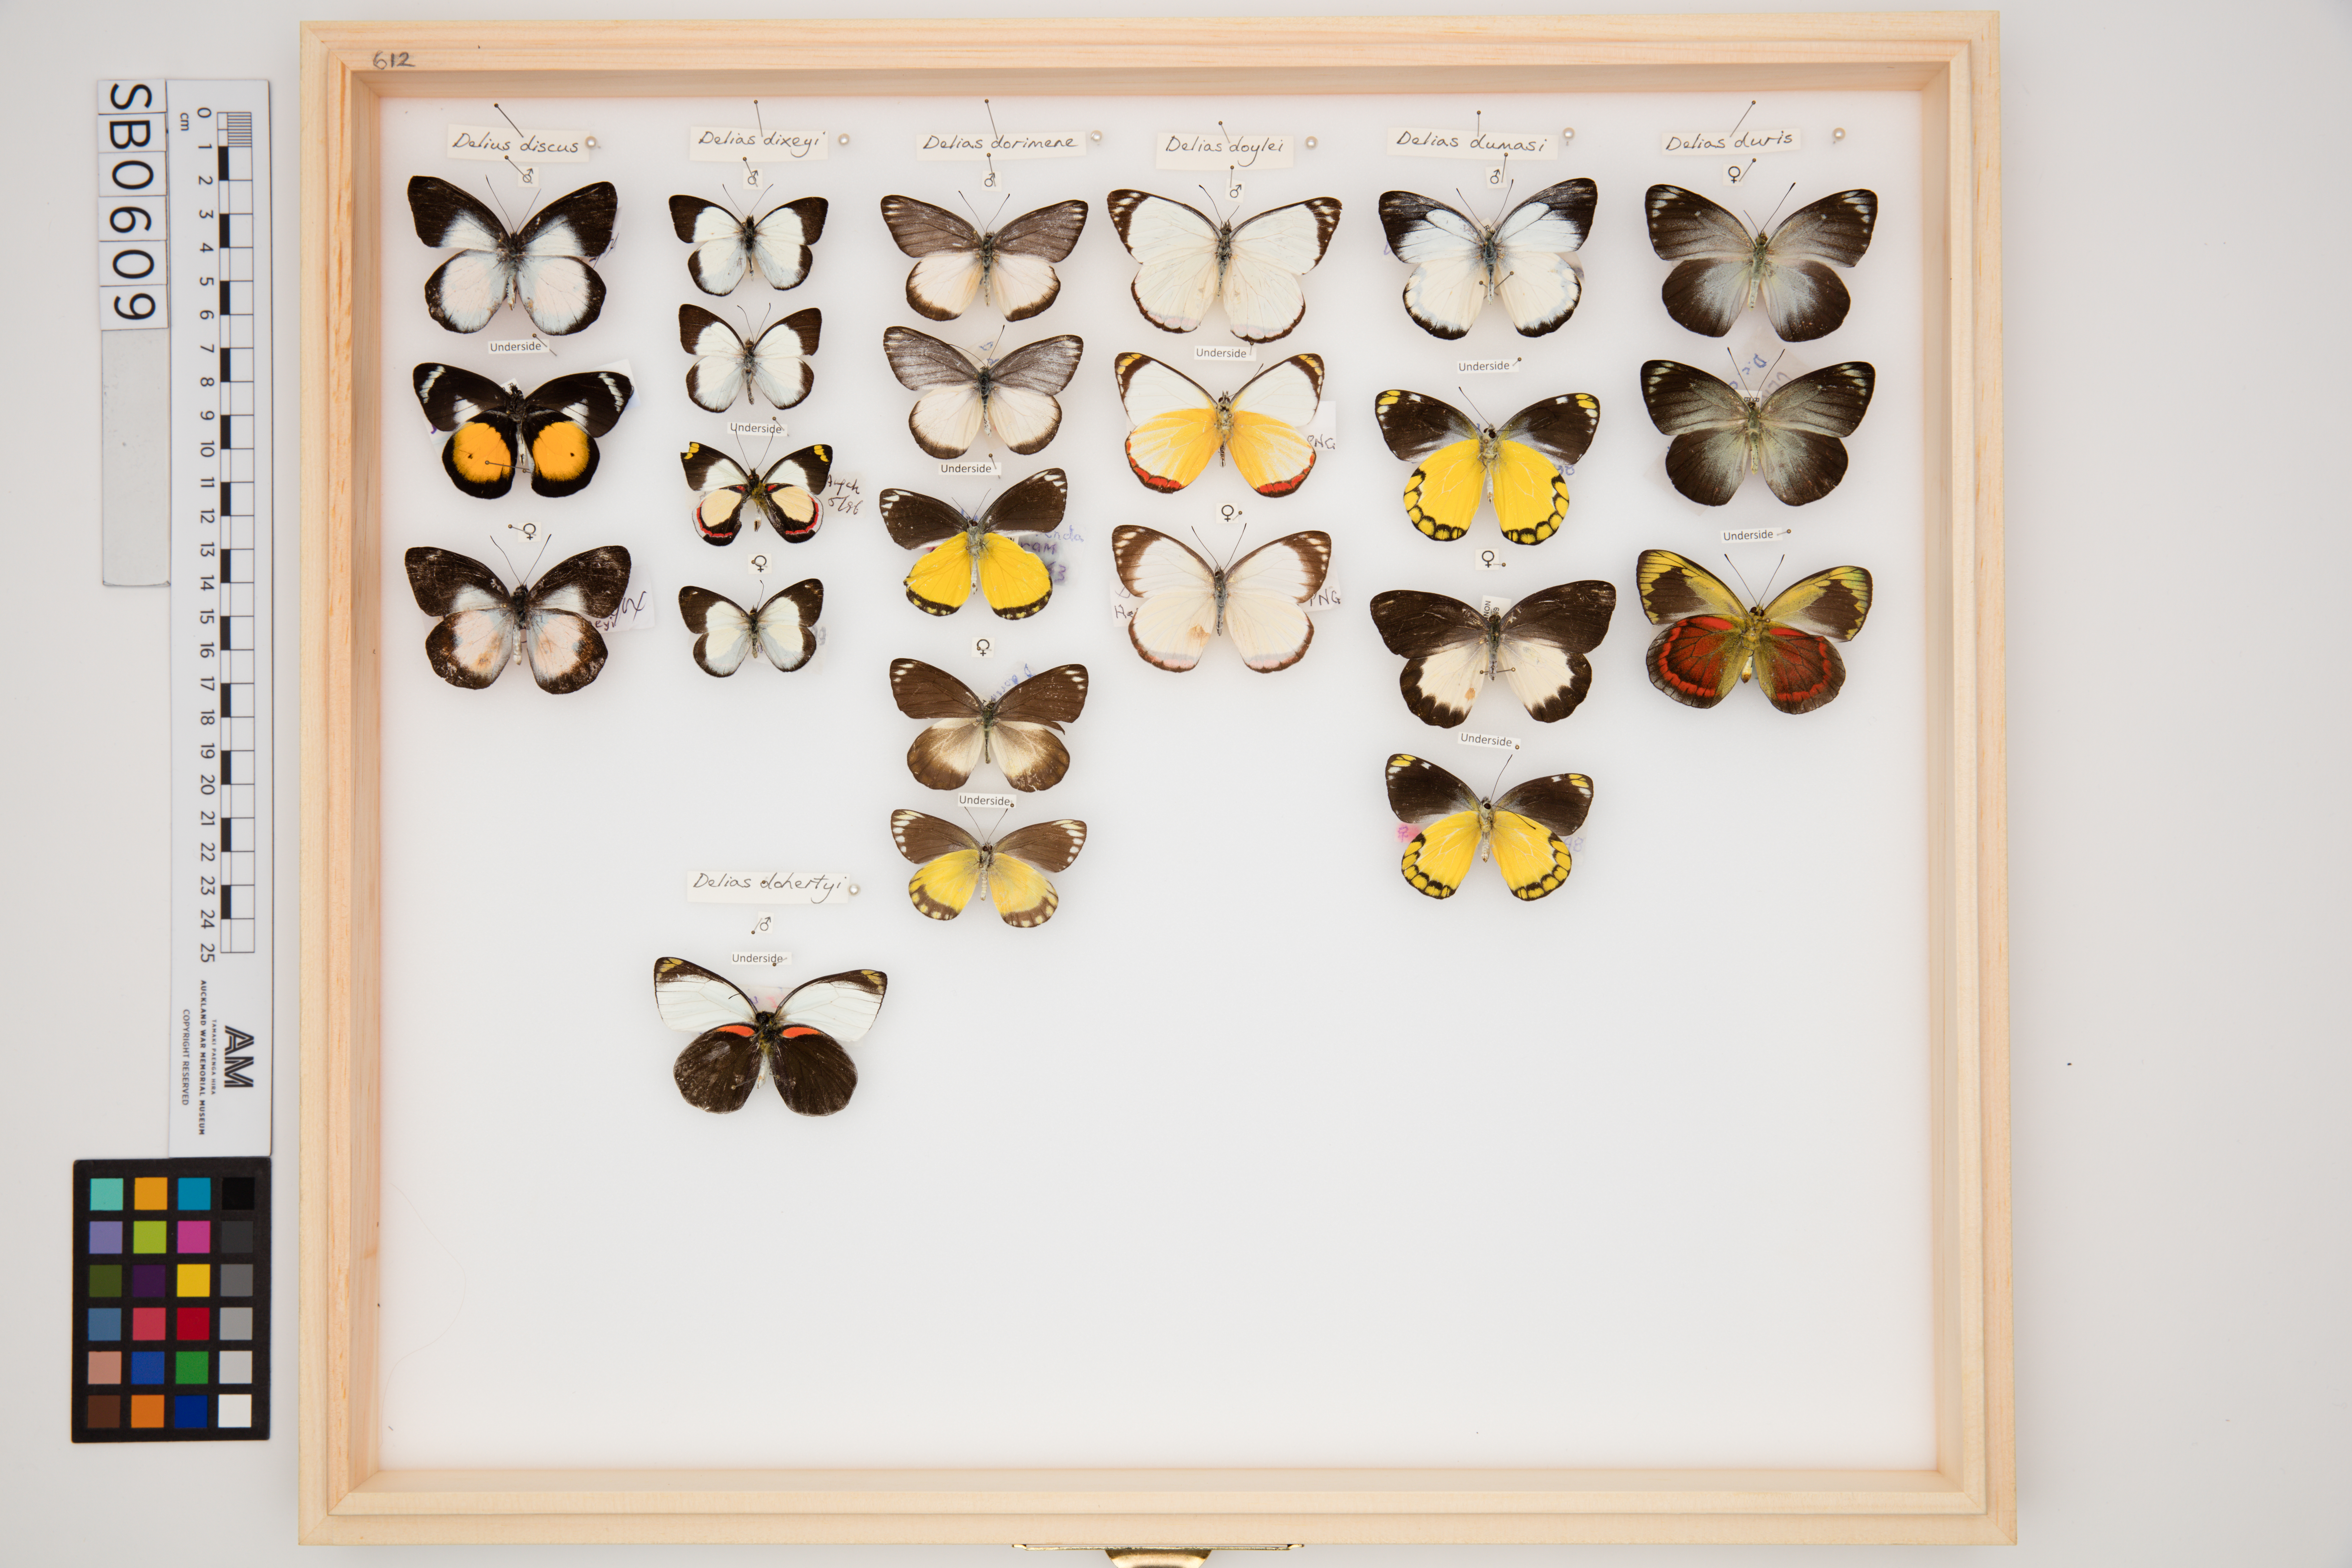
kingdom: Animalia
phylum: Arthropoda
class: Insecta
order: Lepidoptera
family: Pieridae
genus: Delias
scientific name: Delias doylei
